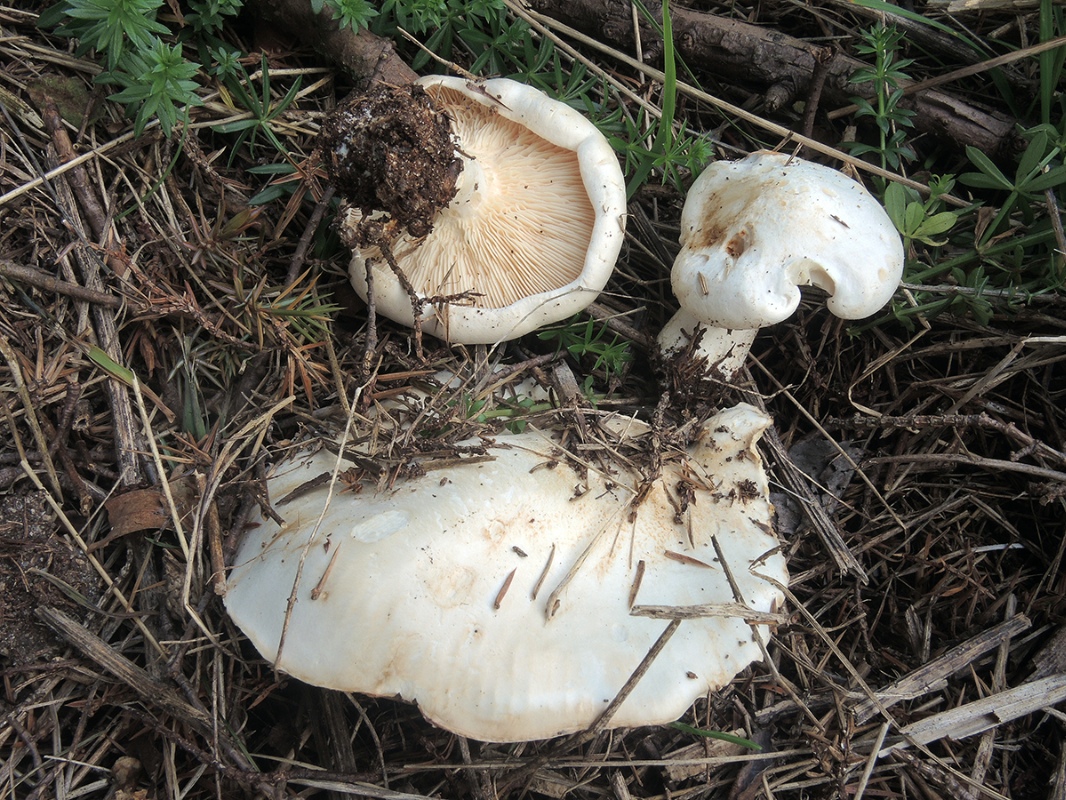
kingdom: Fungi
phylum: Basidiomycota
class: Agaricomycetes
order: Agaricales
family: Tricholomataceae
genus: Aspropaxillus
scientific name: Aspropaxillus giganteus
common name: kæmpe-tragtridderhat
